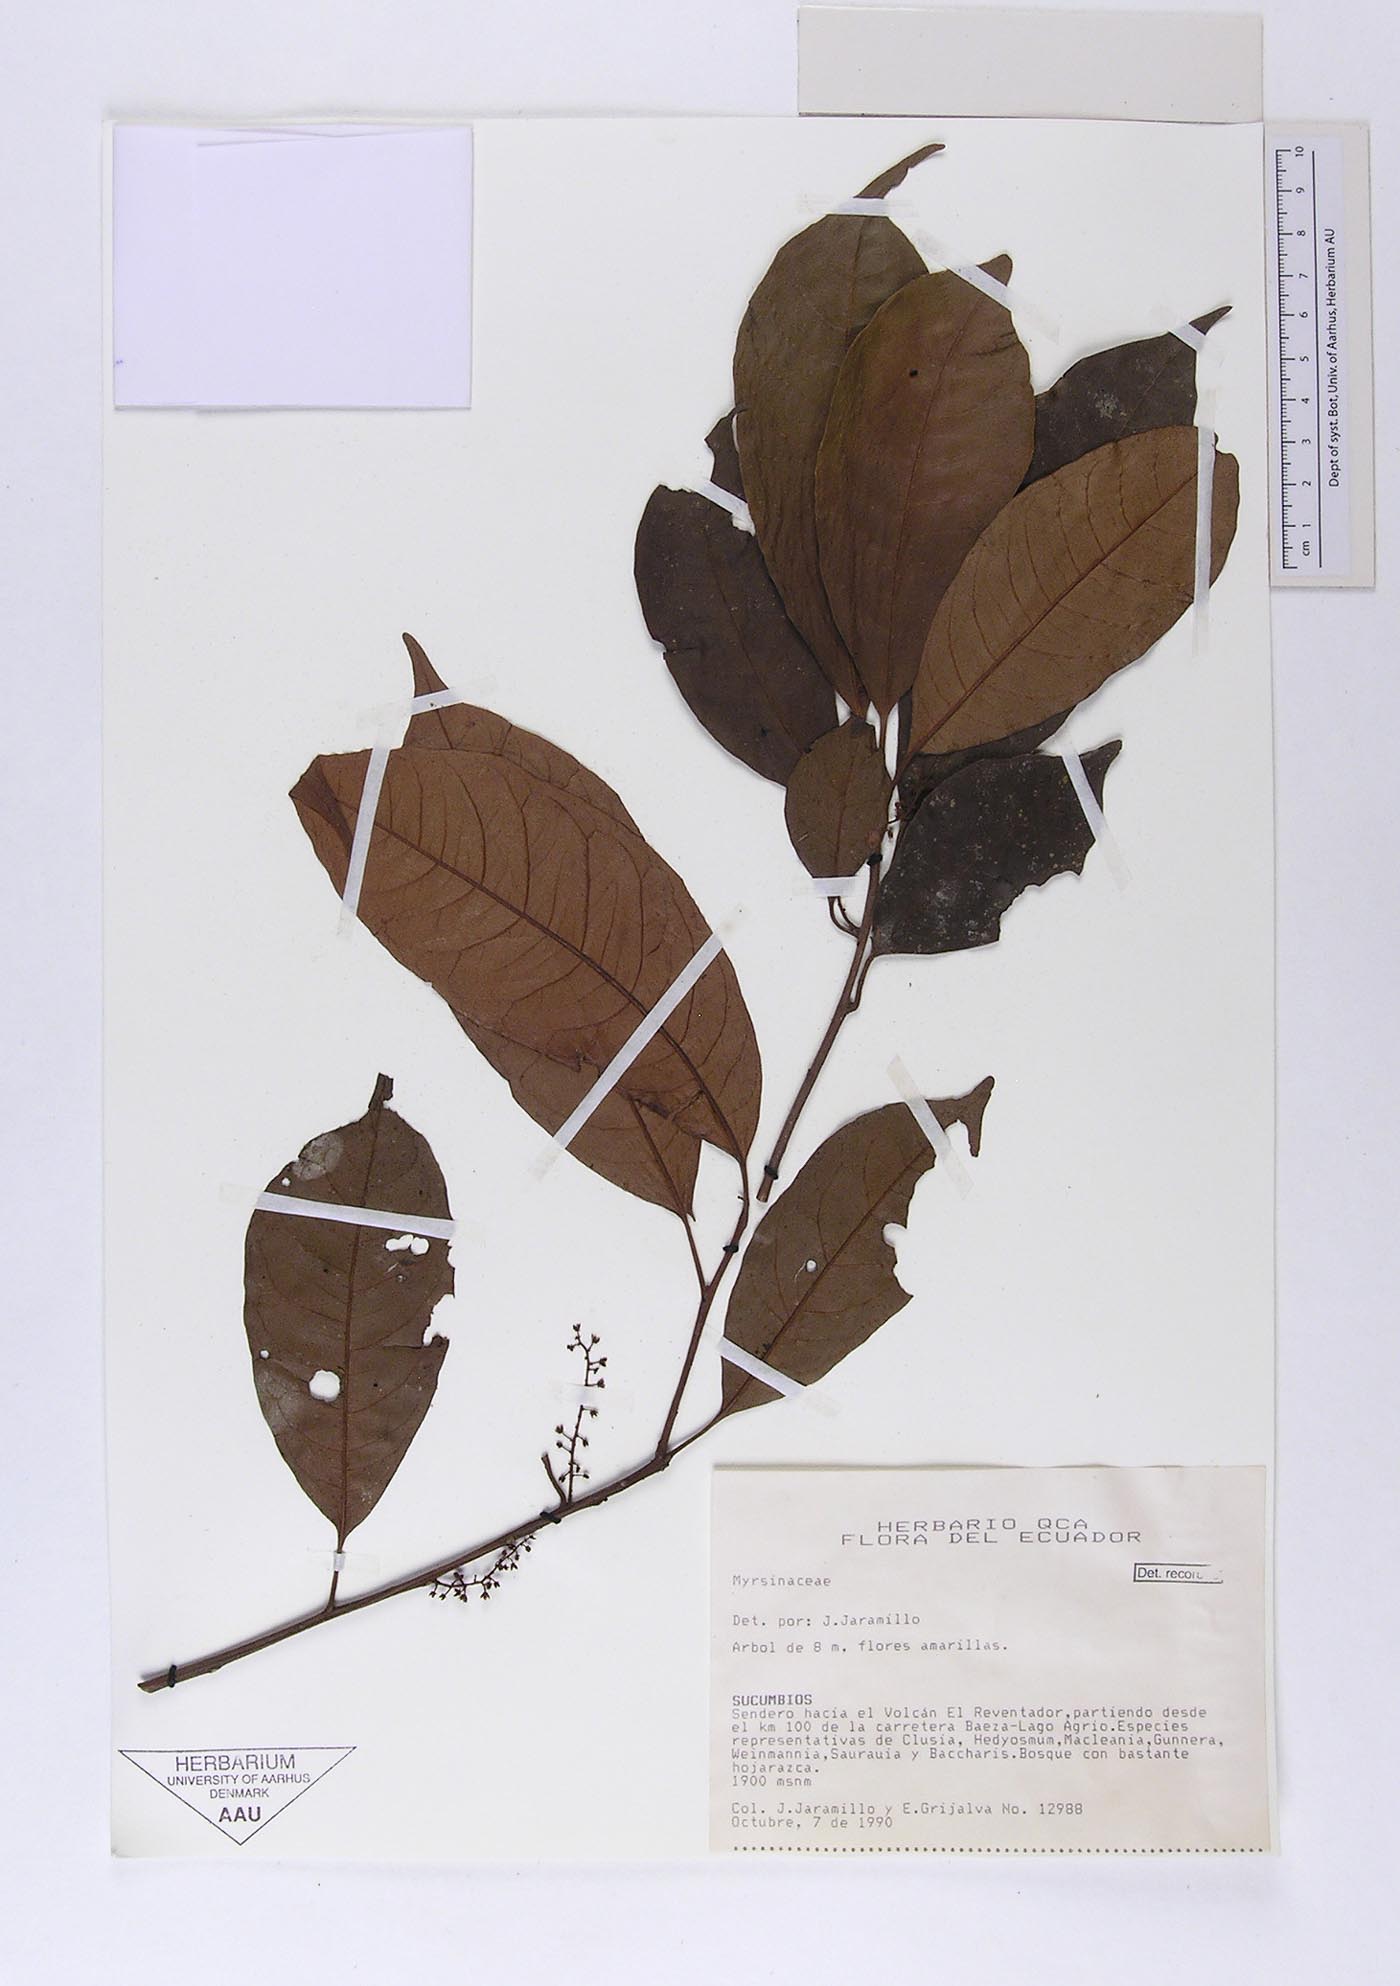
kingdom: Plantae
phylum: Tracheophyta
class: Magnoliopsida
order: Ericales
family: Primulaceae
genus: Cybianthus
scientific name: Cybianthus occigranatensis
